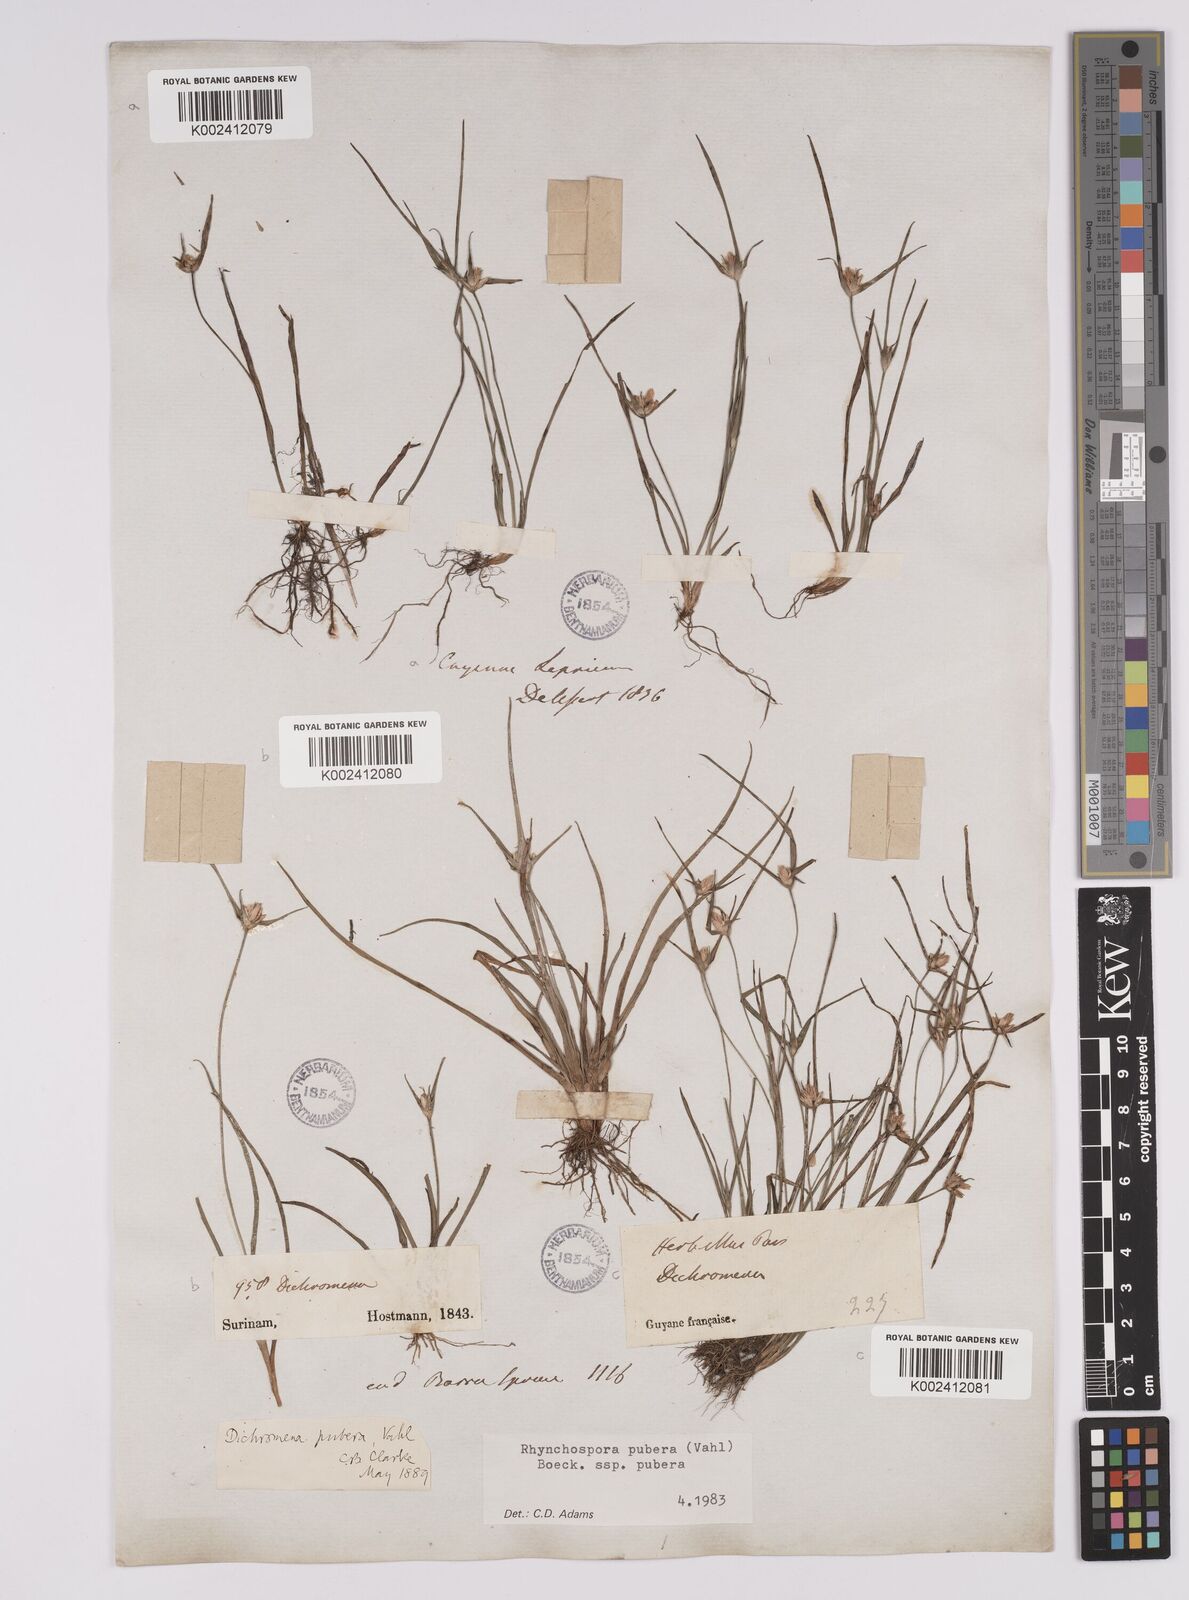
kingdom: Plantae
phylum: Tracheophyta
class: Liliopsida
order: Poales
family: Cyperaceae
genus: Rhynchospora
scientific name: Rhynchospora pubera
